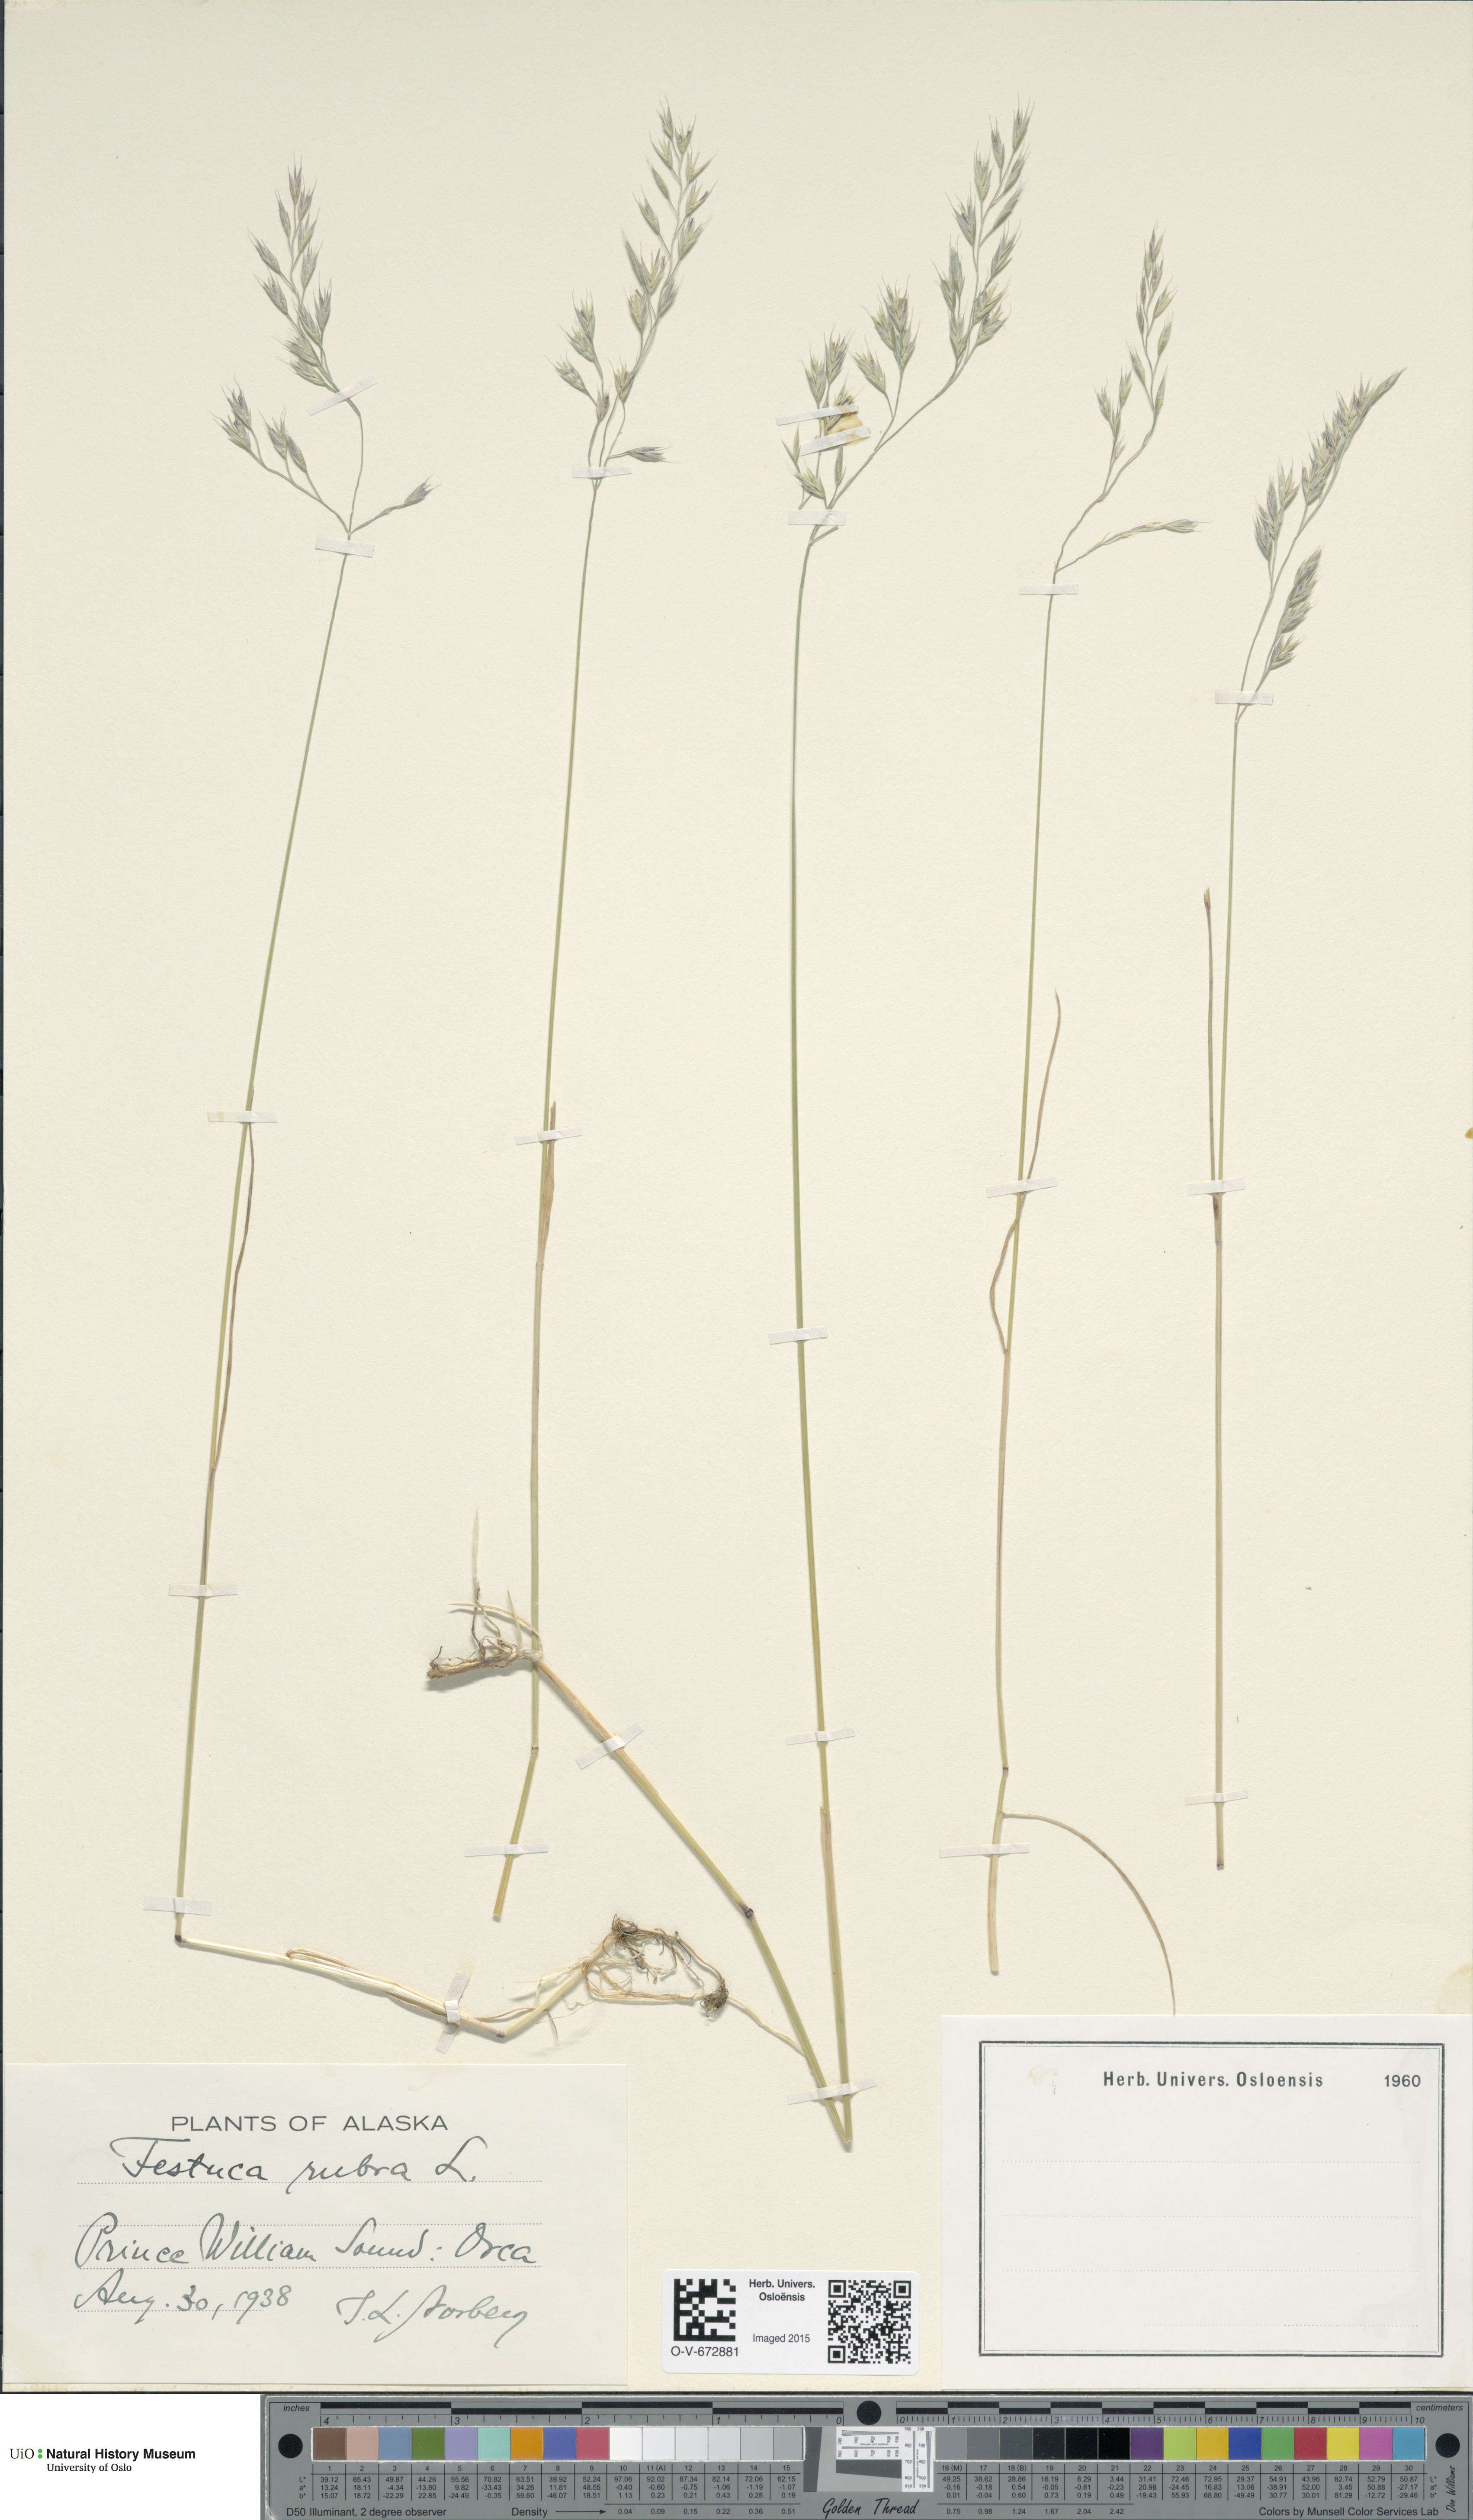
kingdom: Plantae
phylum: Tracheophyta
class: Liliopsida
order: Poales
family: Poaceae
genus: Festuca
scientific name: Festuca rubra
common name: Red fescue
